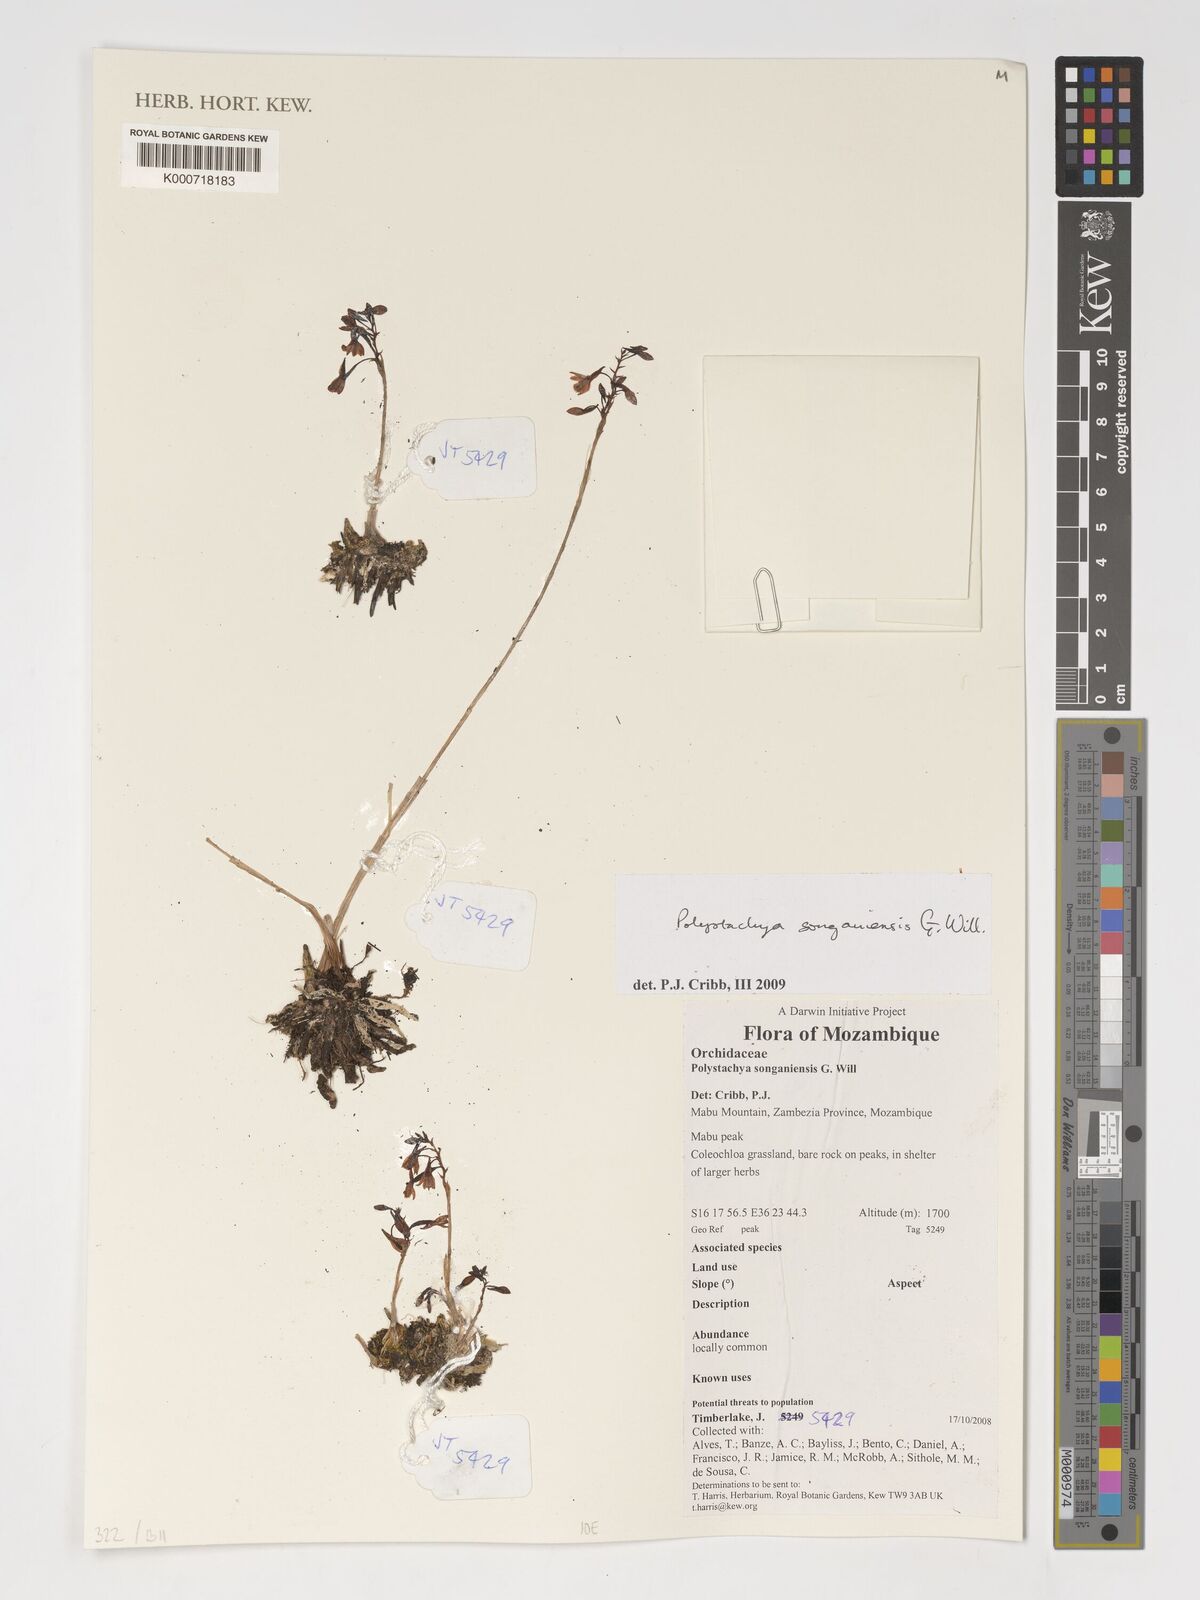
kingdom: Plantae
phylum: Tracheophyta
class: Liliopsida
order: Asparagales
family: Orchidaceae
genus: Polystachya
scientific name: Polystachya songaniensis
